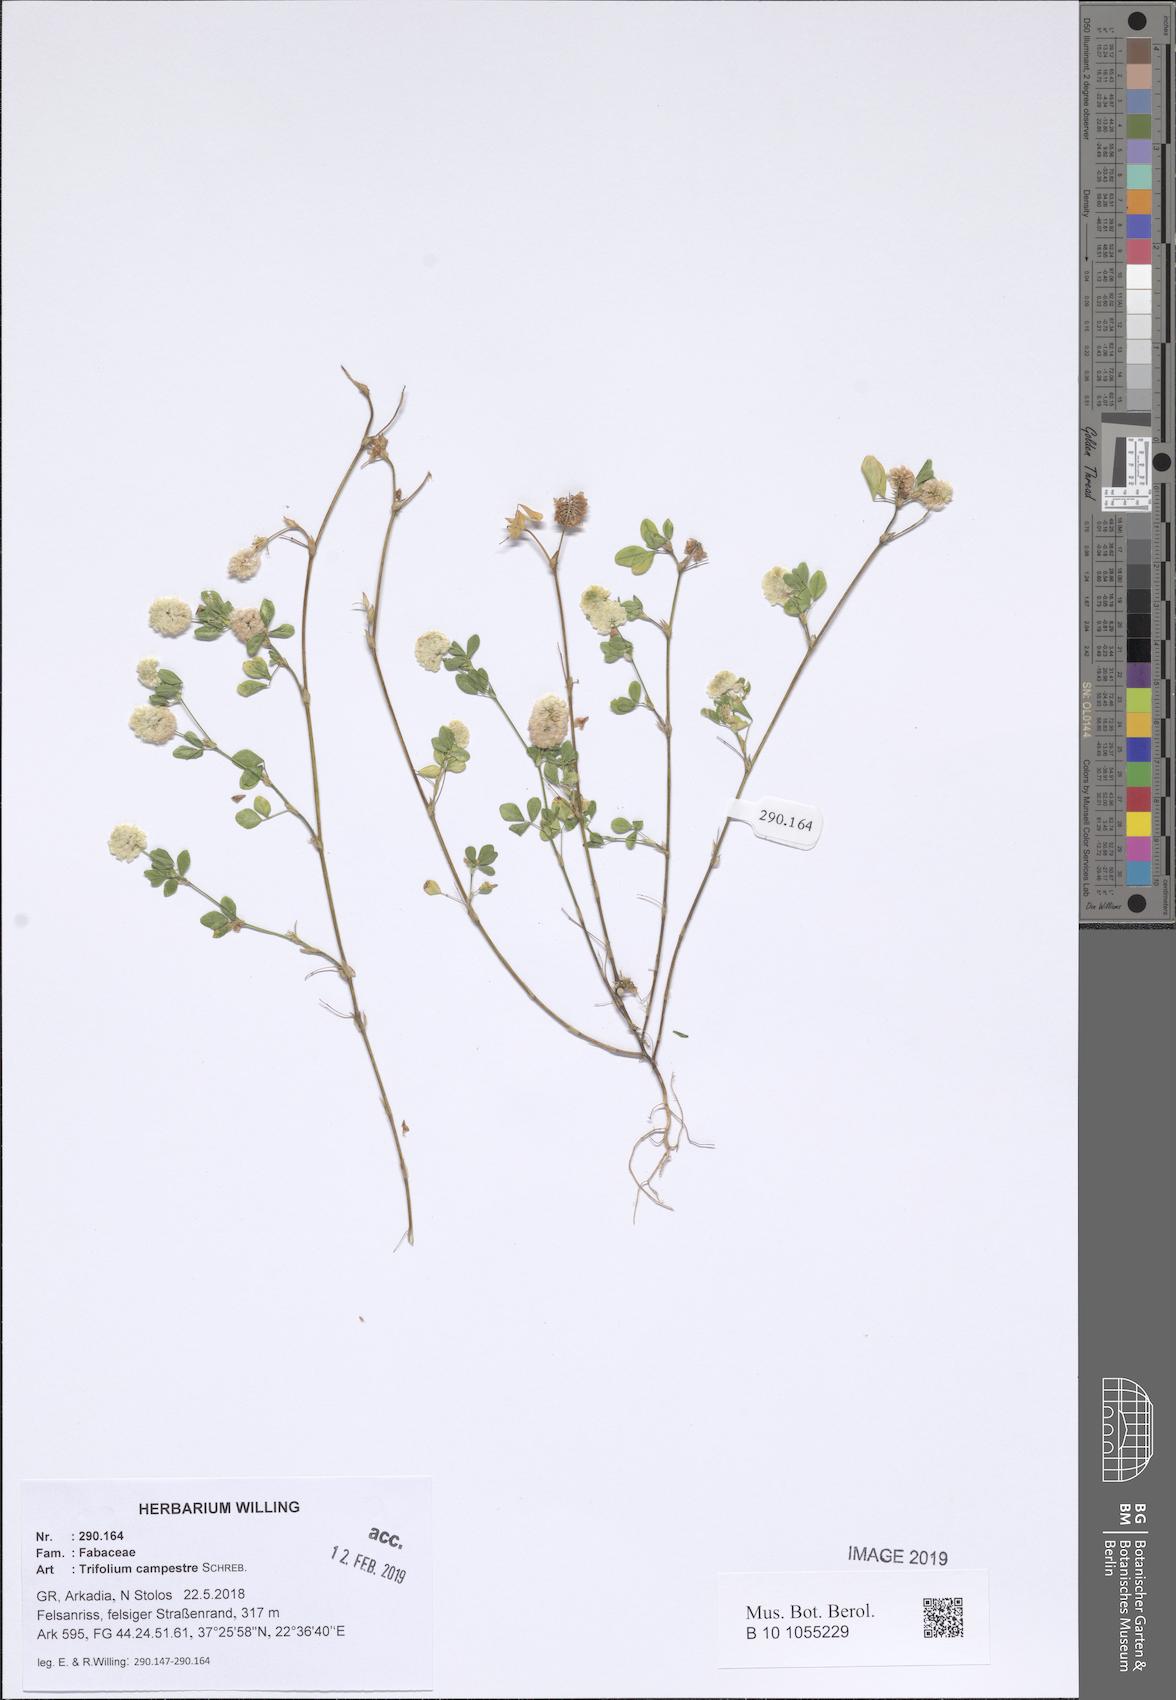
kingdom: Plantae
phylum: Tracheophyta
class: Magnoliopsida
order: Fabales
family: Fabaceae
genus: Trifolium
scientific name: Trifolium campestre
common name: Field clover
